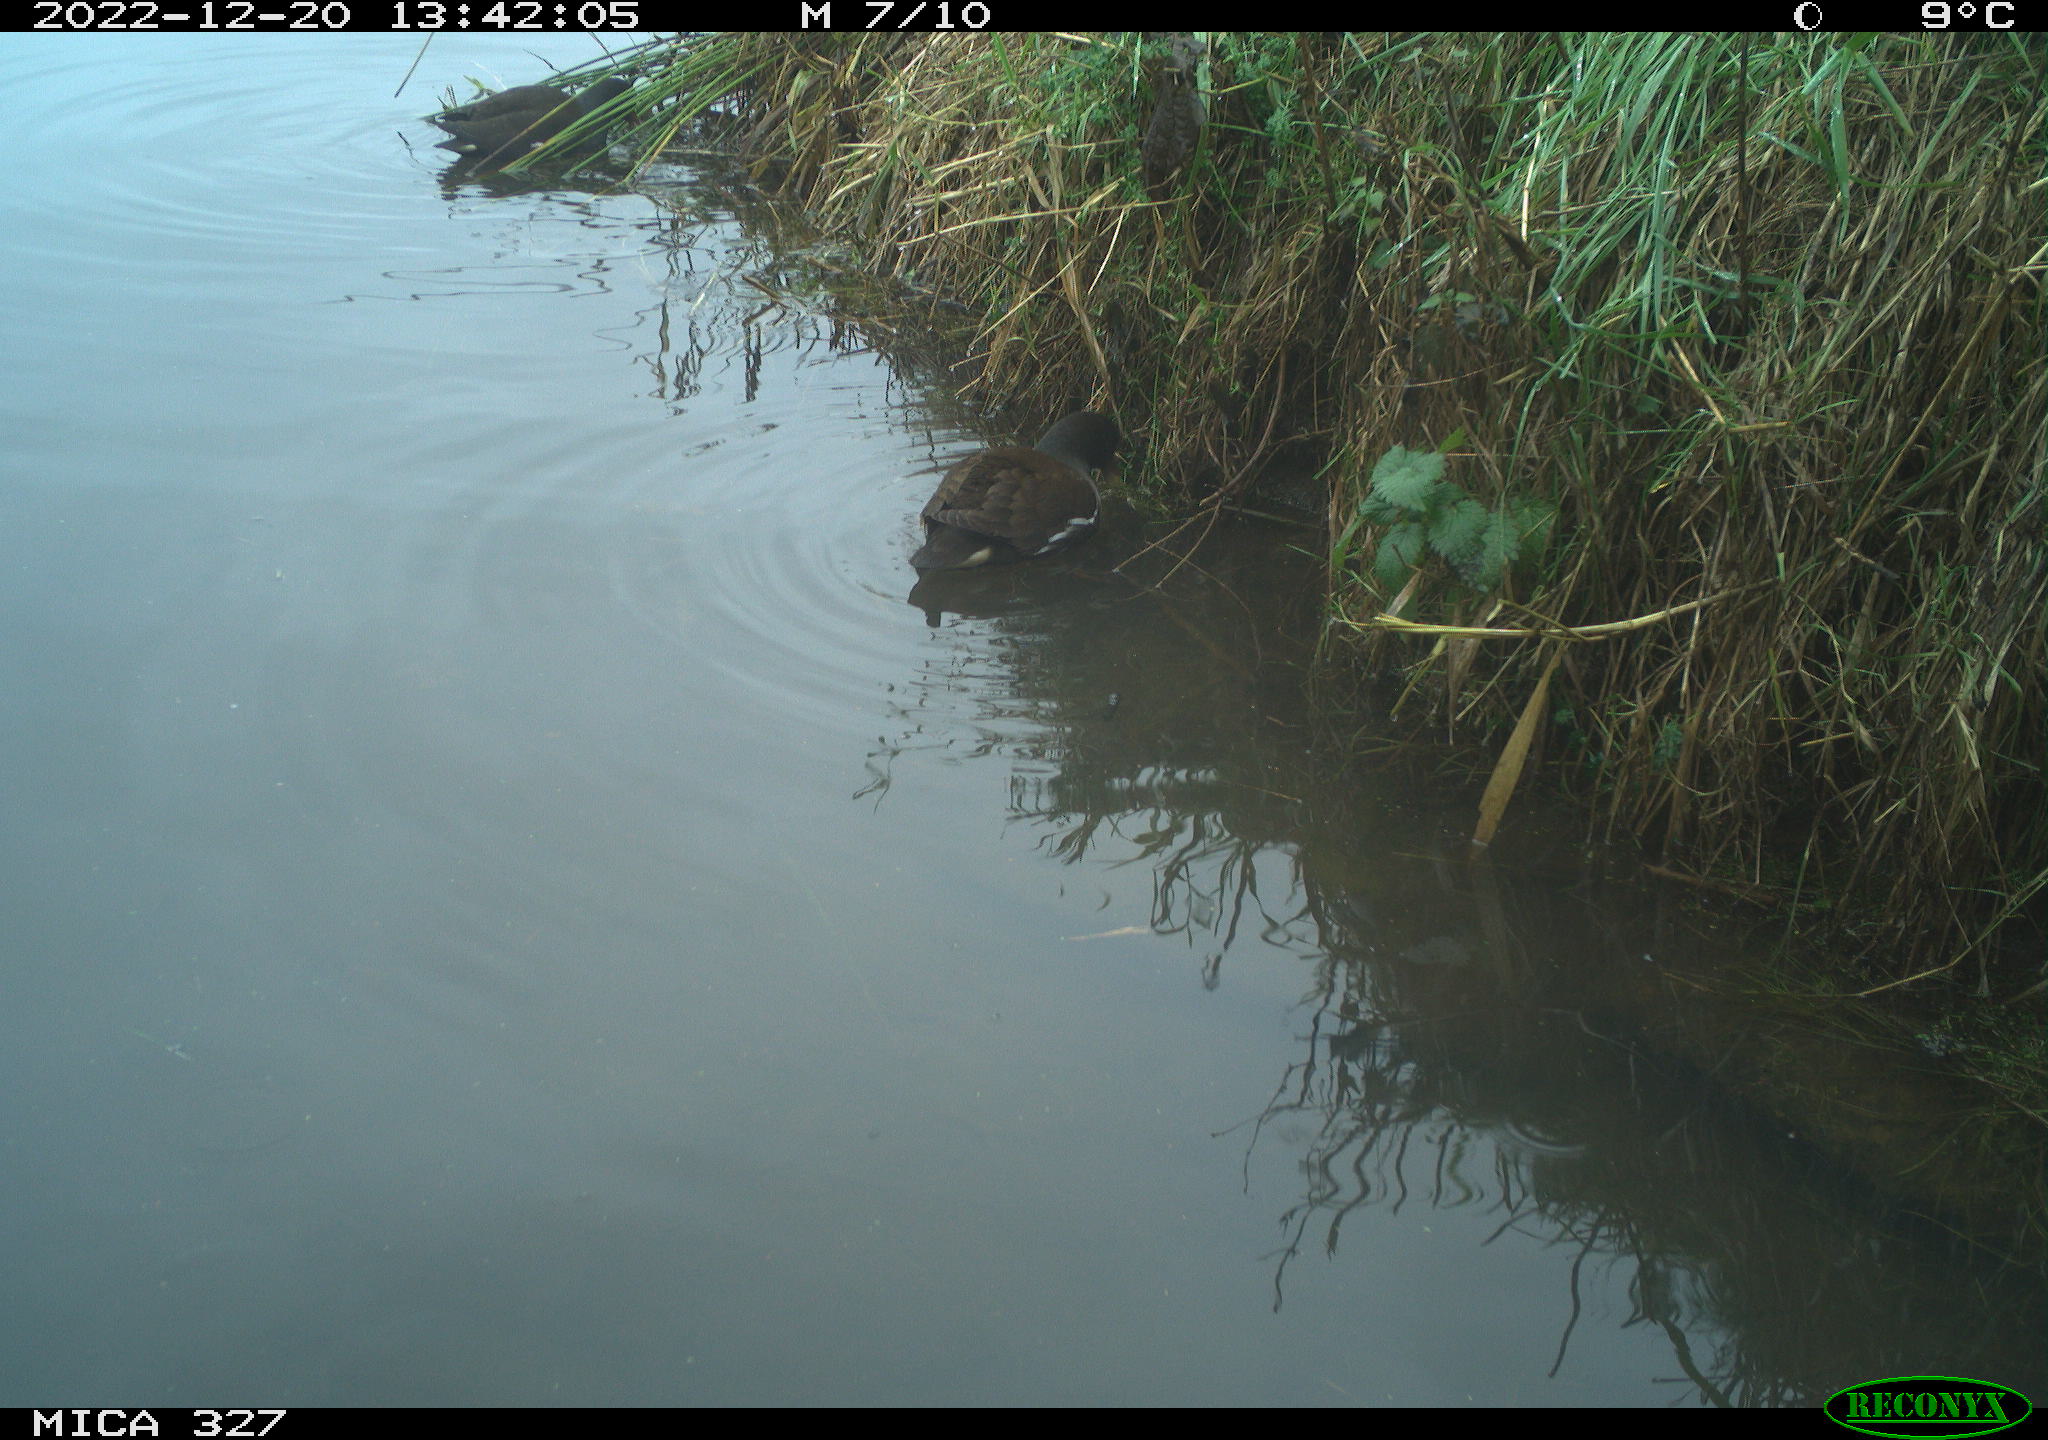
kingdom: Animalia
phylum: Chordata
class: Aves
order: Gruiformes
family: Rallidae
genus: Gallinula
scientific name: Gallinula chloropus
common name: Common moorhen
